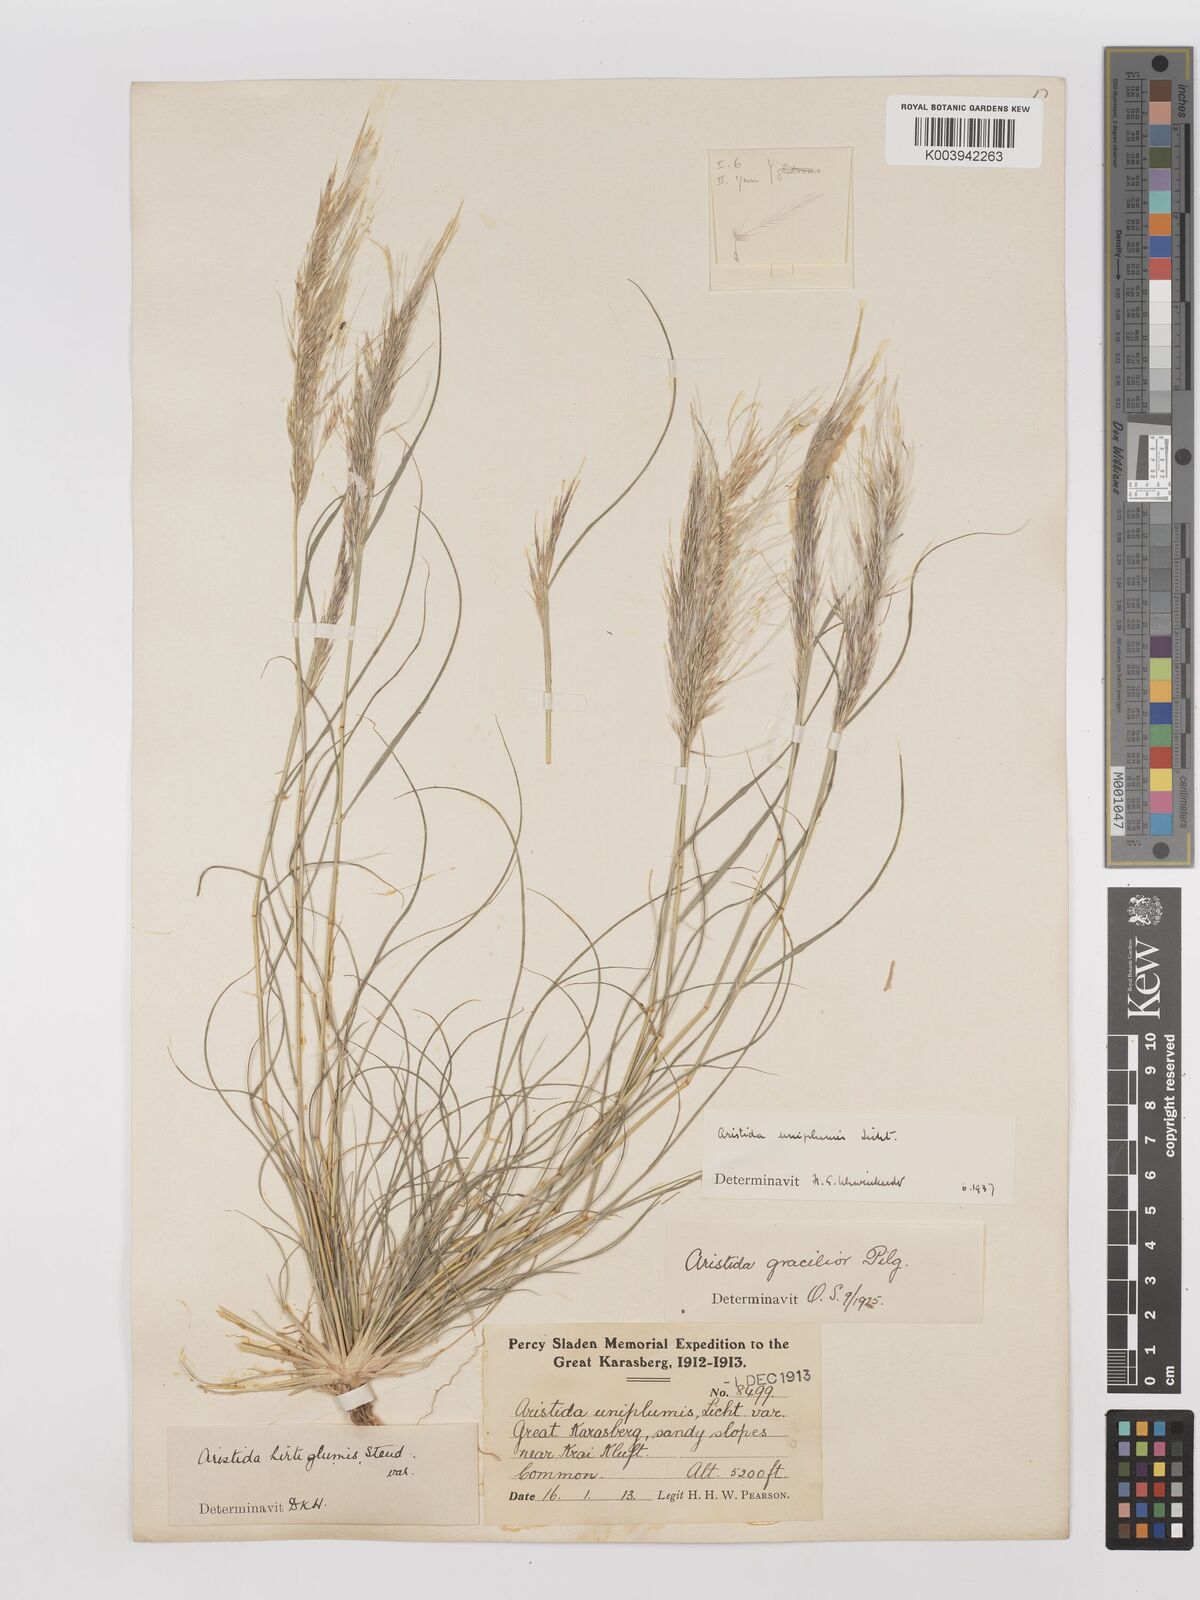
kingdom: Plantae
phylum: Tracheophyta
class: Liliopsida
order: Poales
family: Poaceae
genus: Stipagrostis
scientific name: Stipagrostis uniplumis
